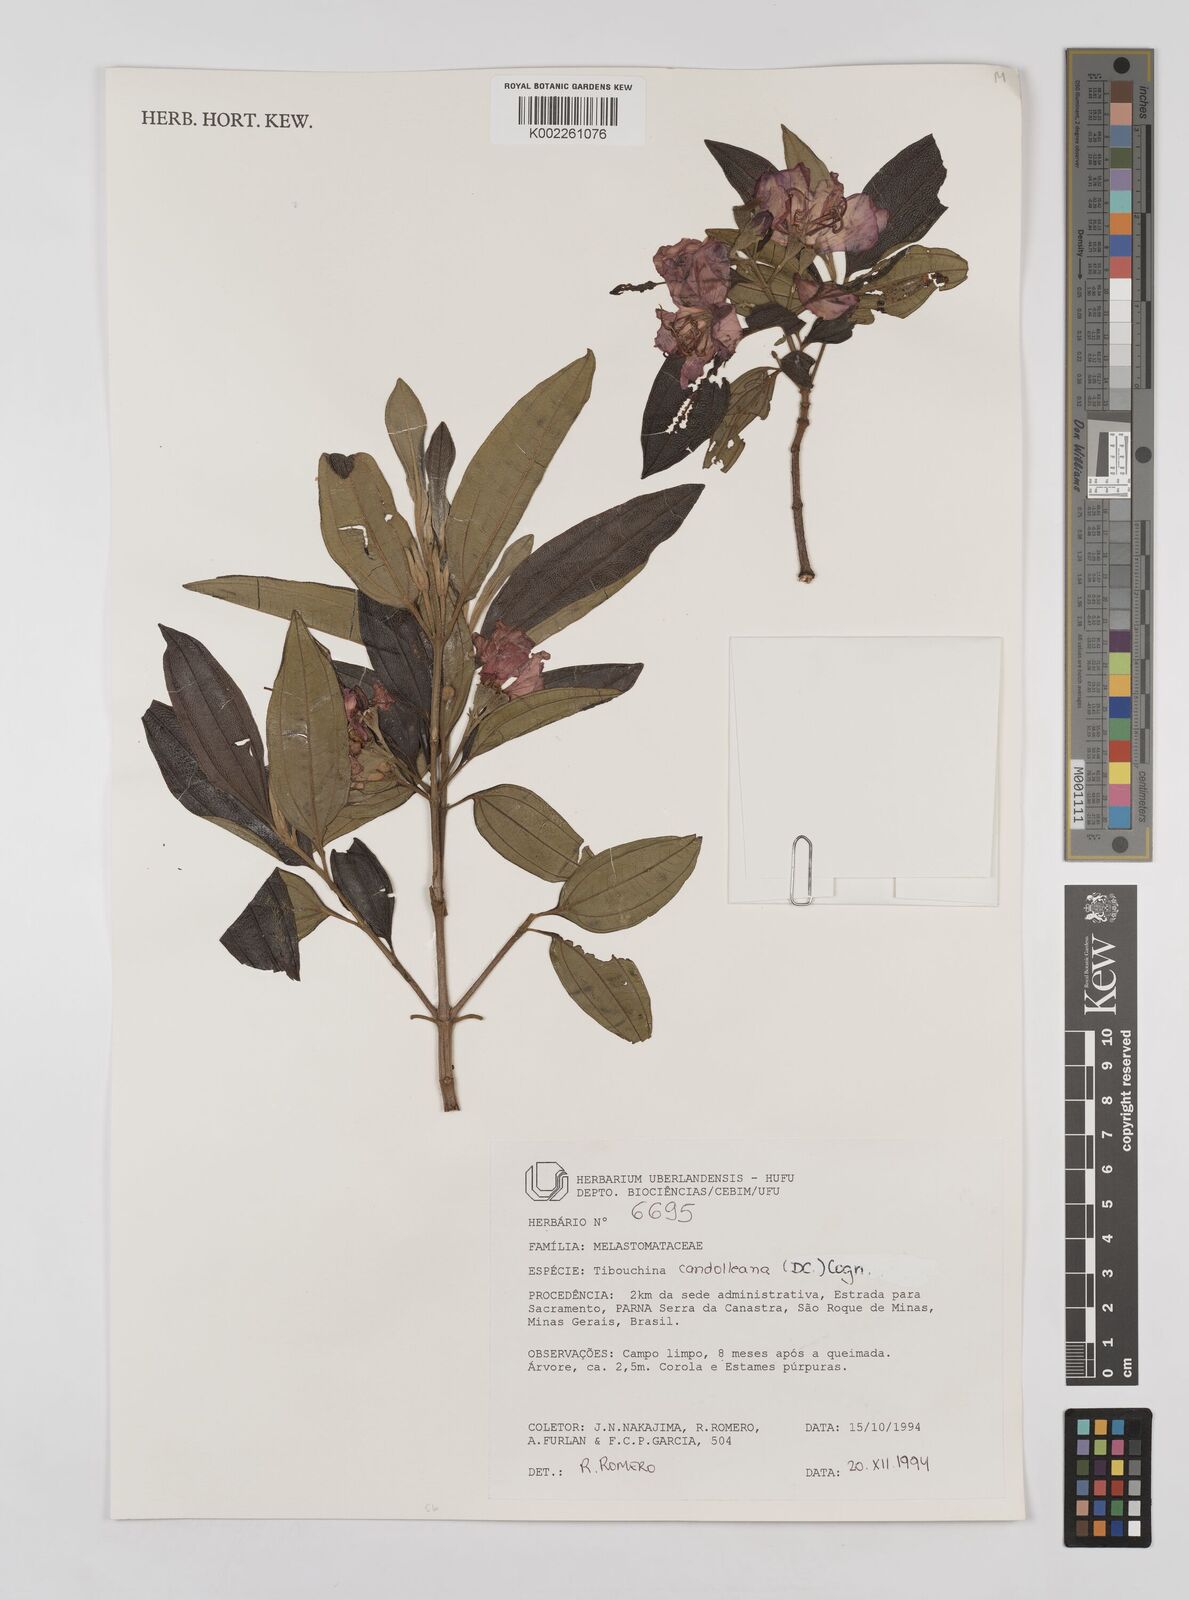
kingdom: Plantae
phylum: Tracheophyta
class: Magnoliopsida
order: Myrtales
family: Melastomataceae
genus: Pleroma
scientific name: Pleroma candolleanum
